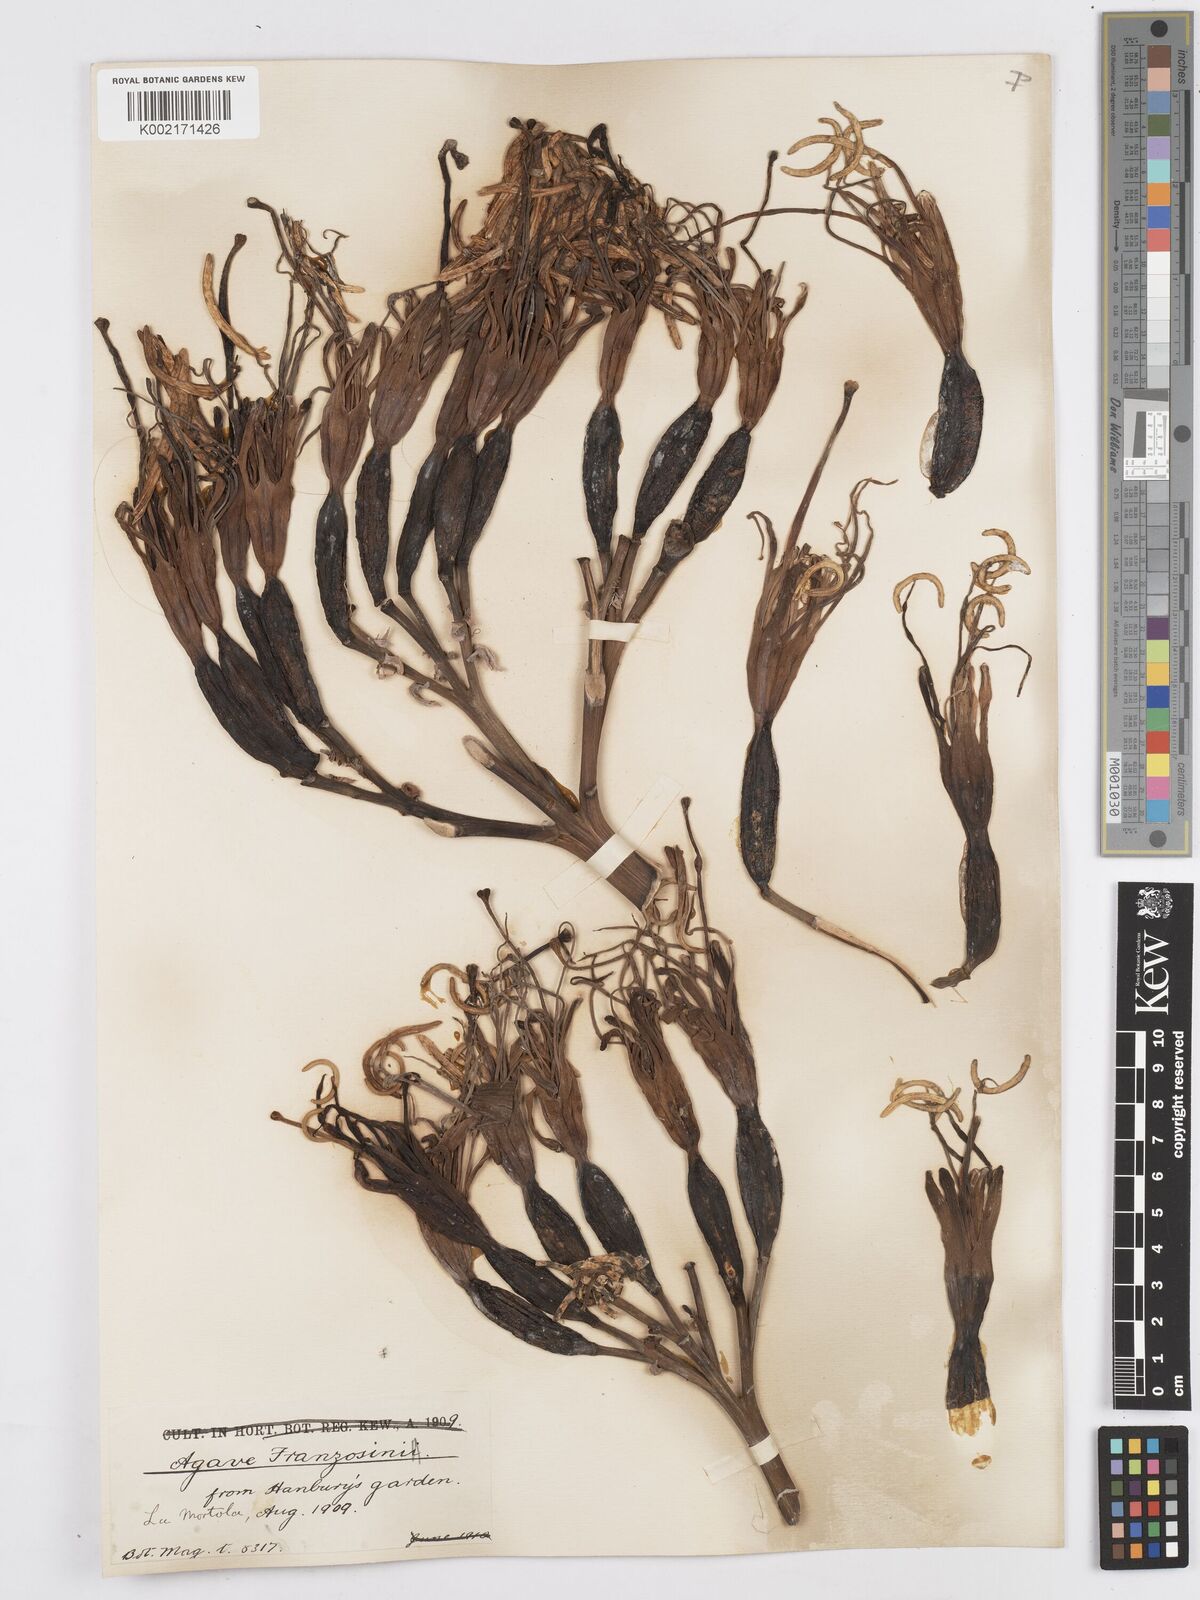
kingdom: Plantae
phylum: Tracheophyta
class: Liliopsida
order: Asparagales
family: Asparagaceae
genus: Agave
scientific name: Agave americana
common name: Centuryplant
